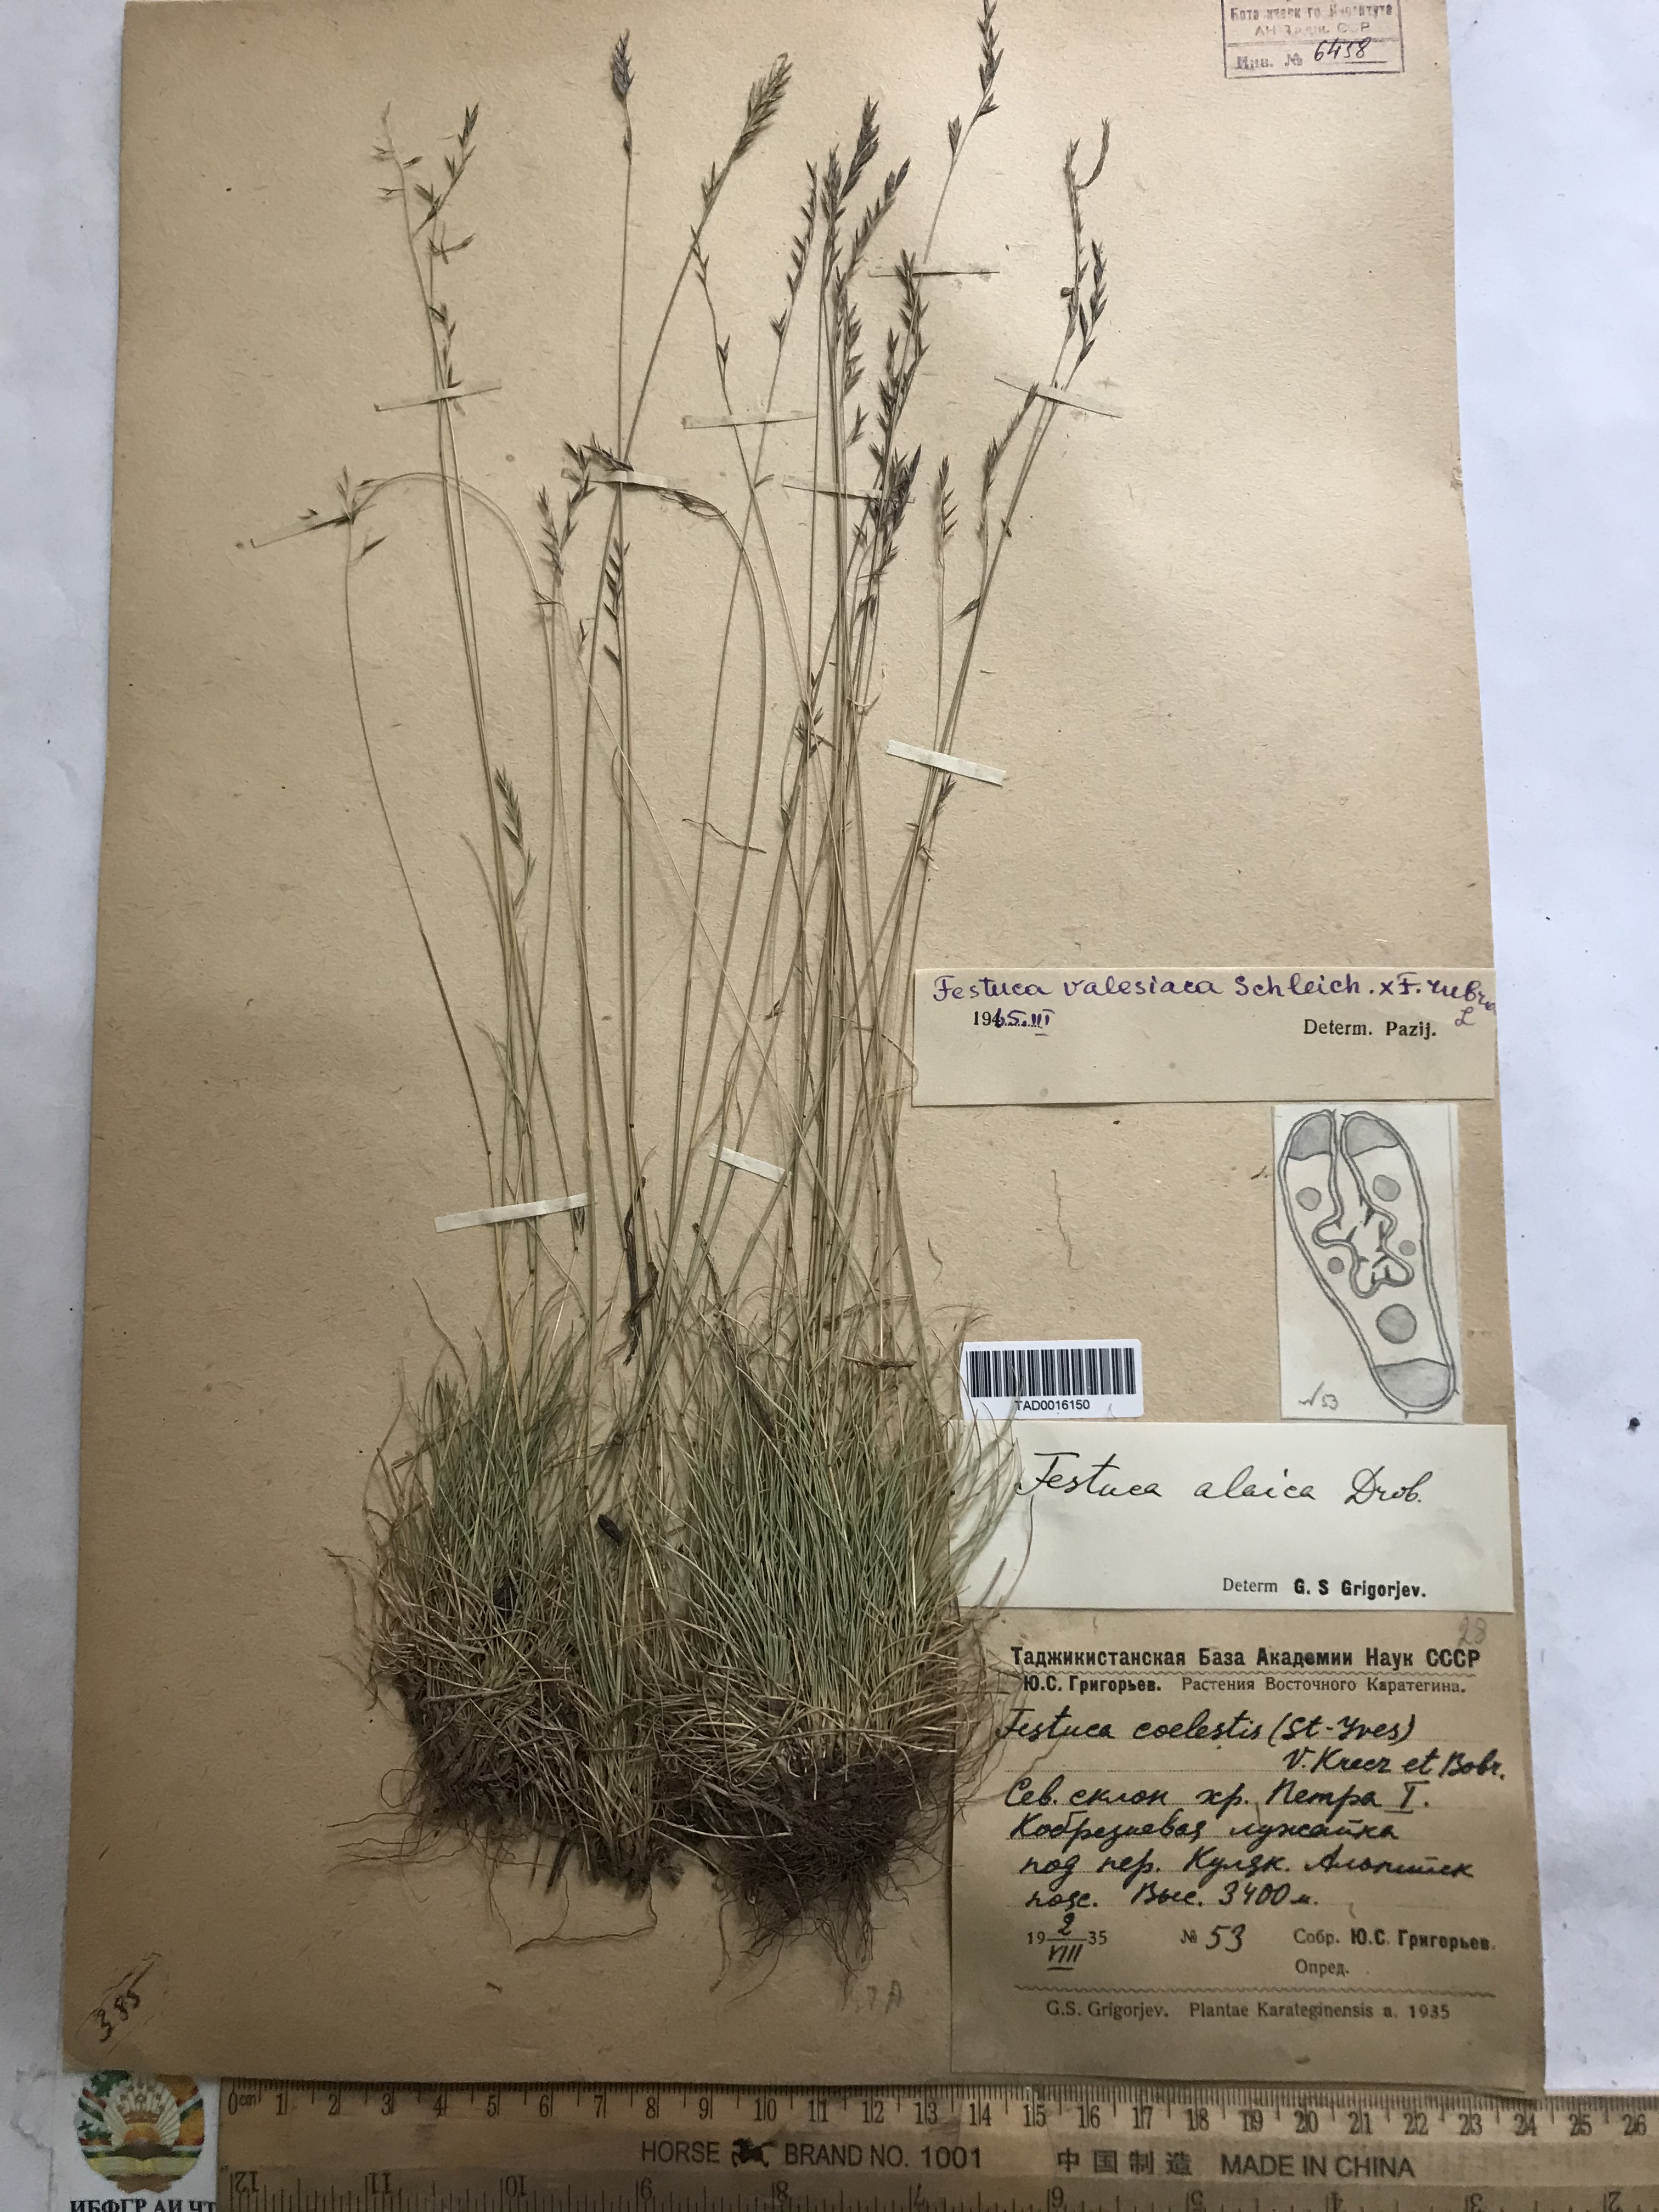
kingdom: Plantae
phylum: Tracheophyta
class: Liliopsida
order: Poales
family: Poaceae
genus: Festuca
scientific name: Festuca alaica
